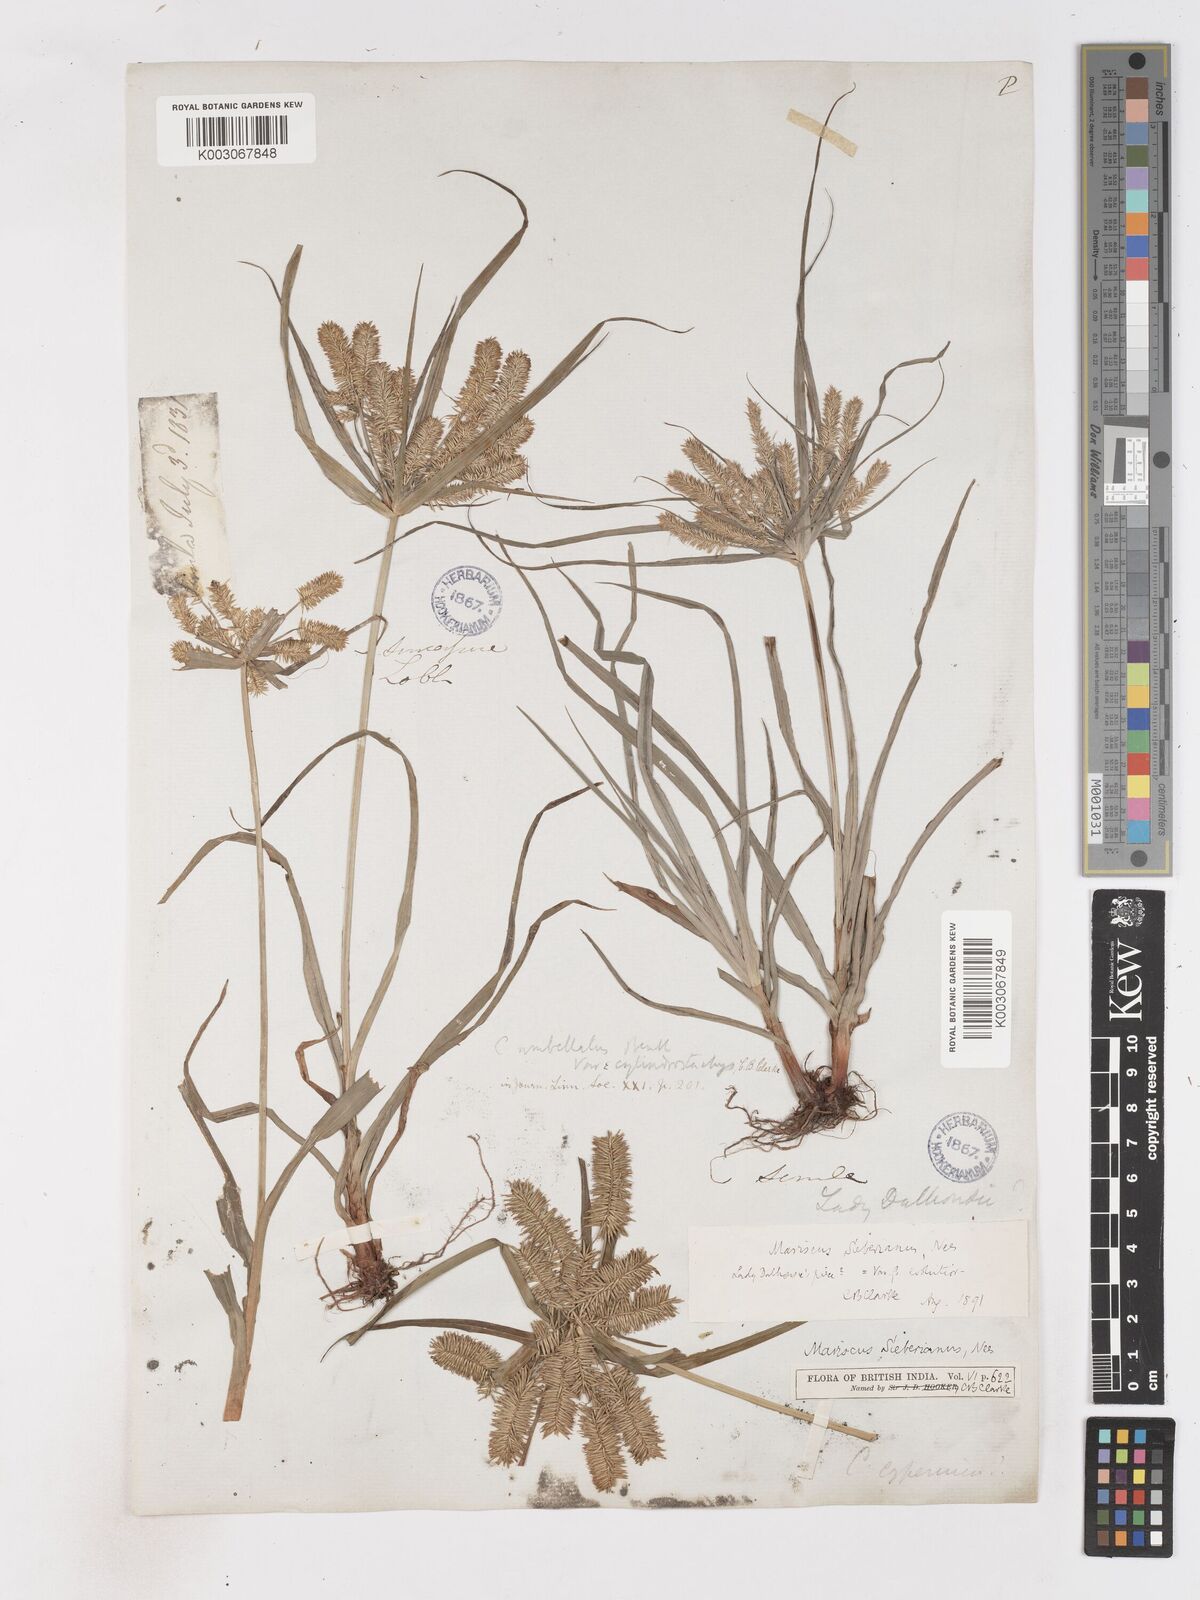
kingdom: Plantae
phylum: Tracheophyta
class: Liliopsida
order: Poales
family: Cyperaceae
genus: Cyperus
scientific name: Cyperus cyperoides
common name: Pacific island flat sedge
